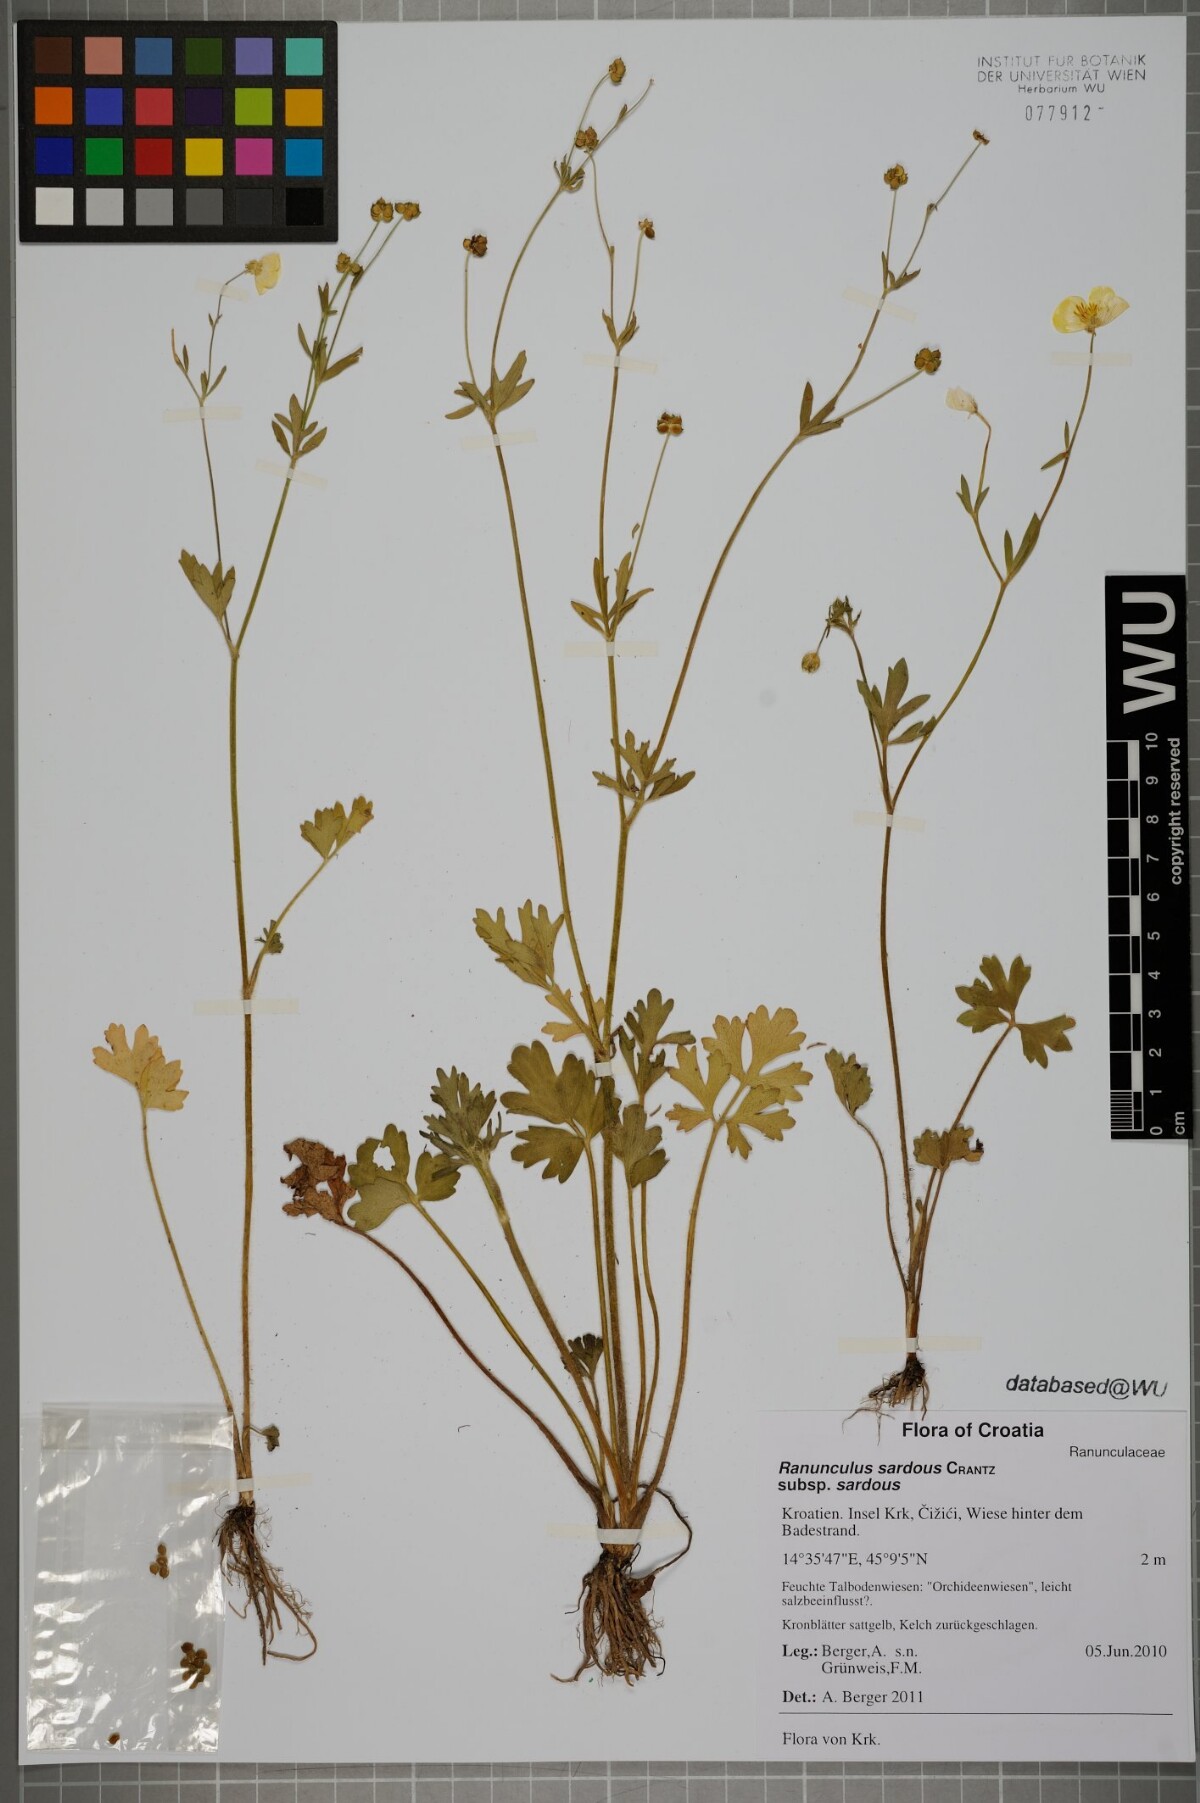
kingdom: Plantae
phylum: Tracheophyta
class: Magnoliopsida
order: Ranunculales
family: Ranunculaceae
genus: Ranunculus
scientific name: Ranunculus sardous
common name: Hairy buttercup
